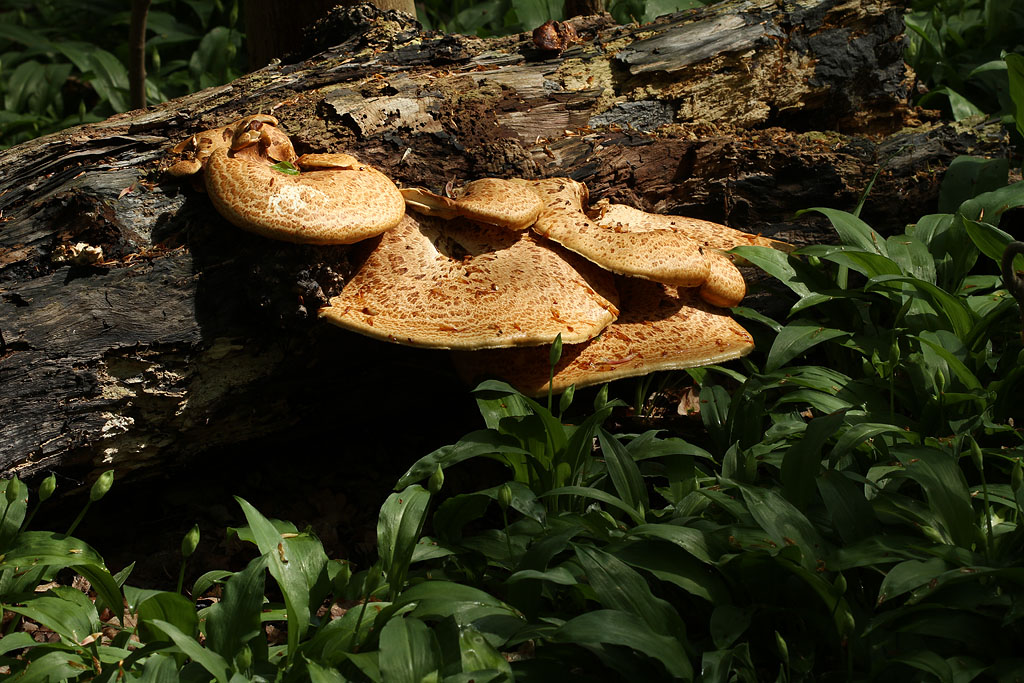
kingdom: Fungi
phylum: Basidiomycota
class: Agaricomycetes
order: Polyporales
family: Polyporaceae
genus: Cerioporus
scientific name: Cerioporus squamosus
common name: skællet stilkporesvamp
